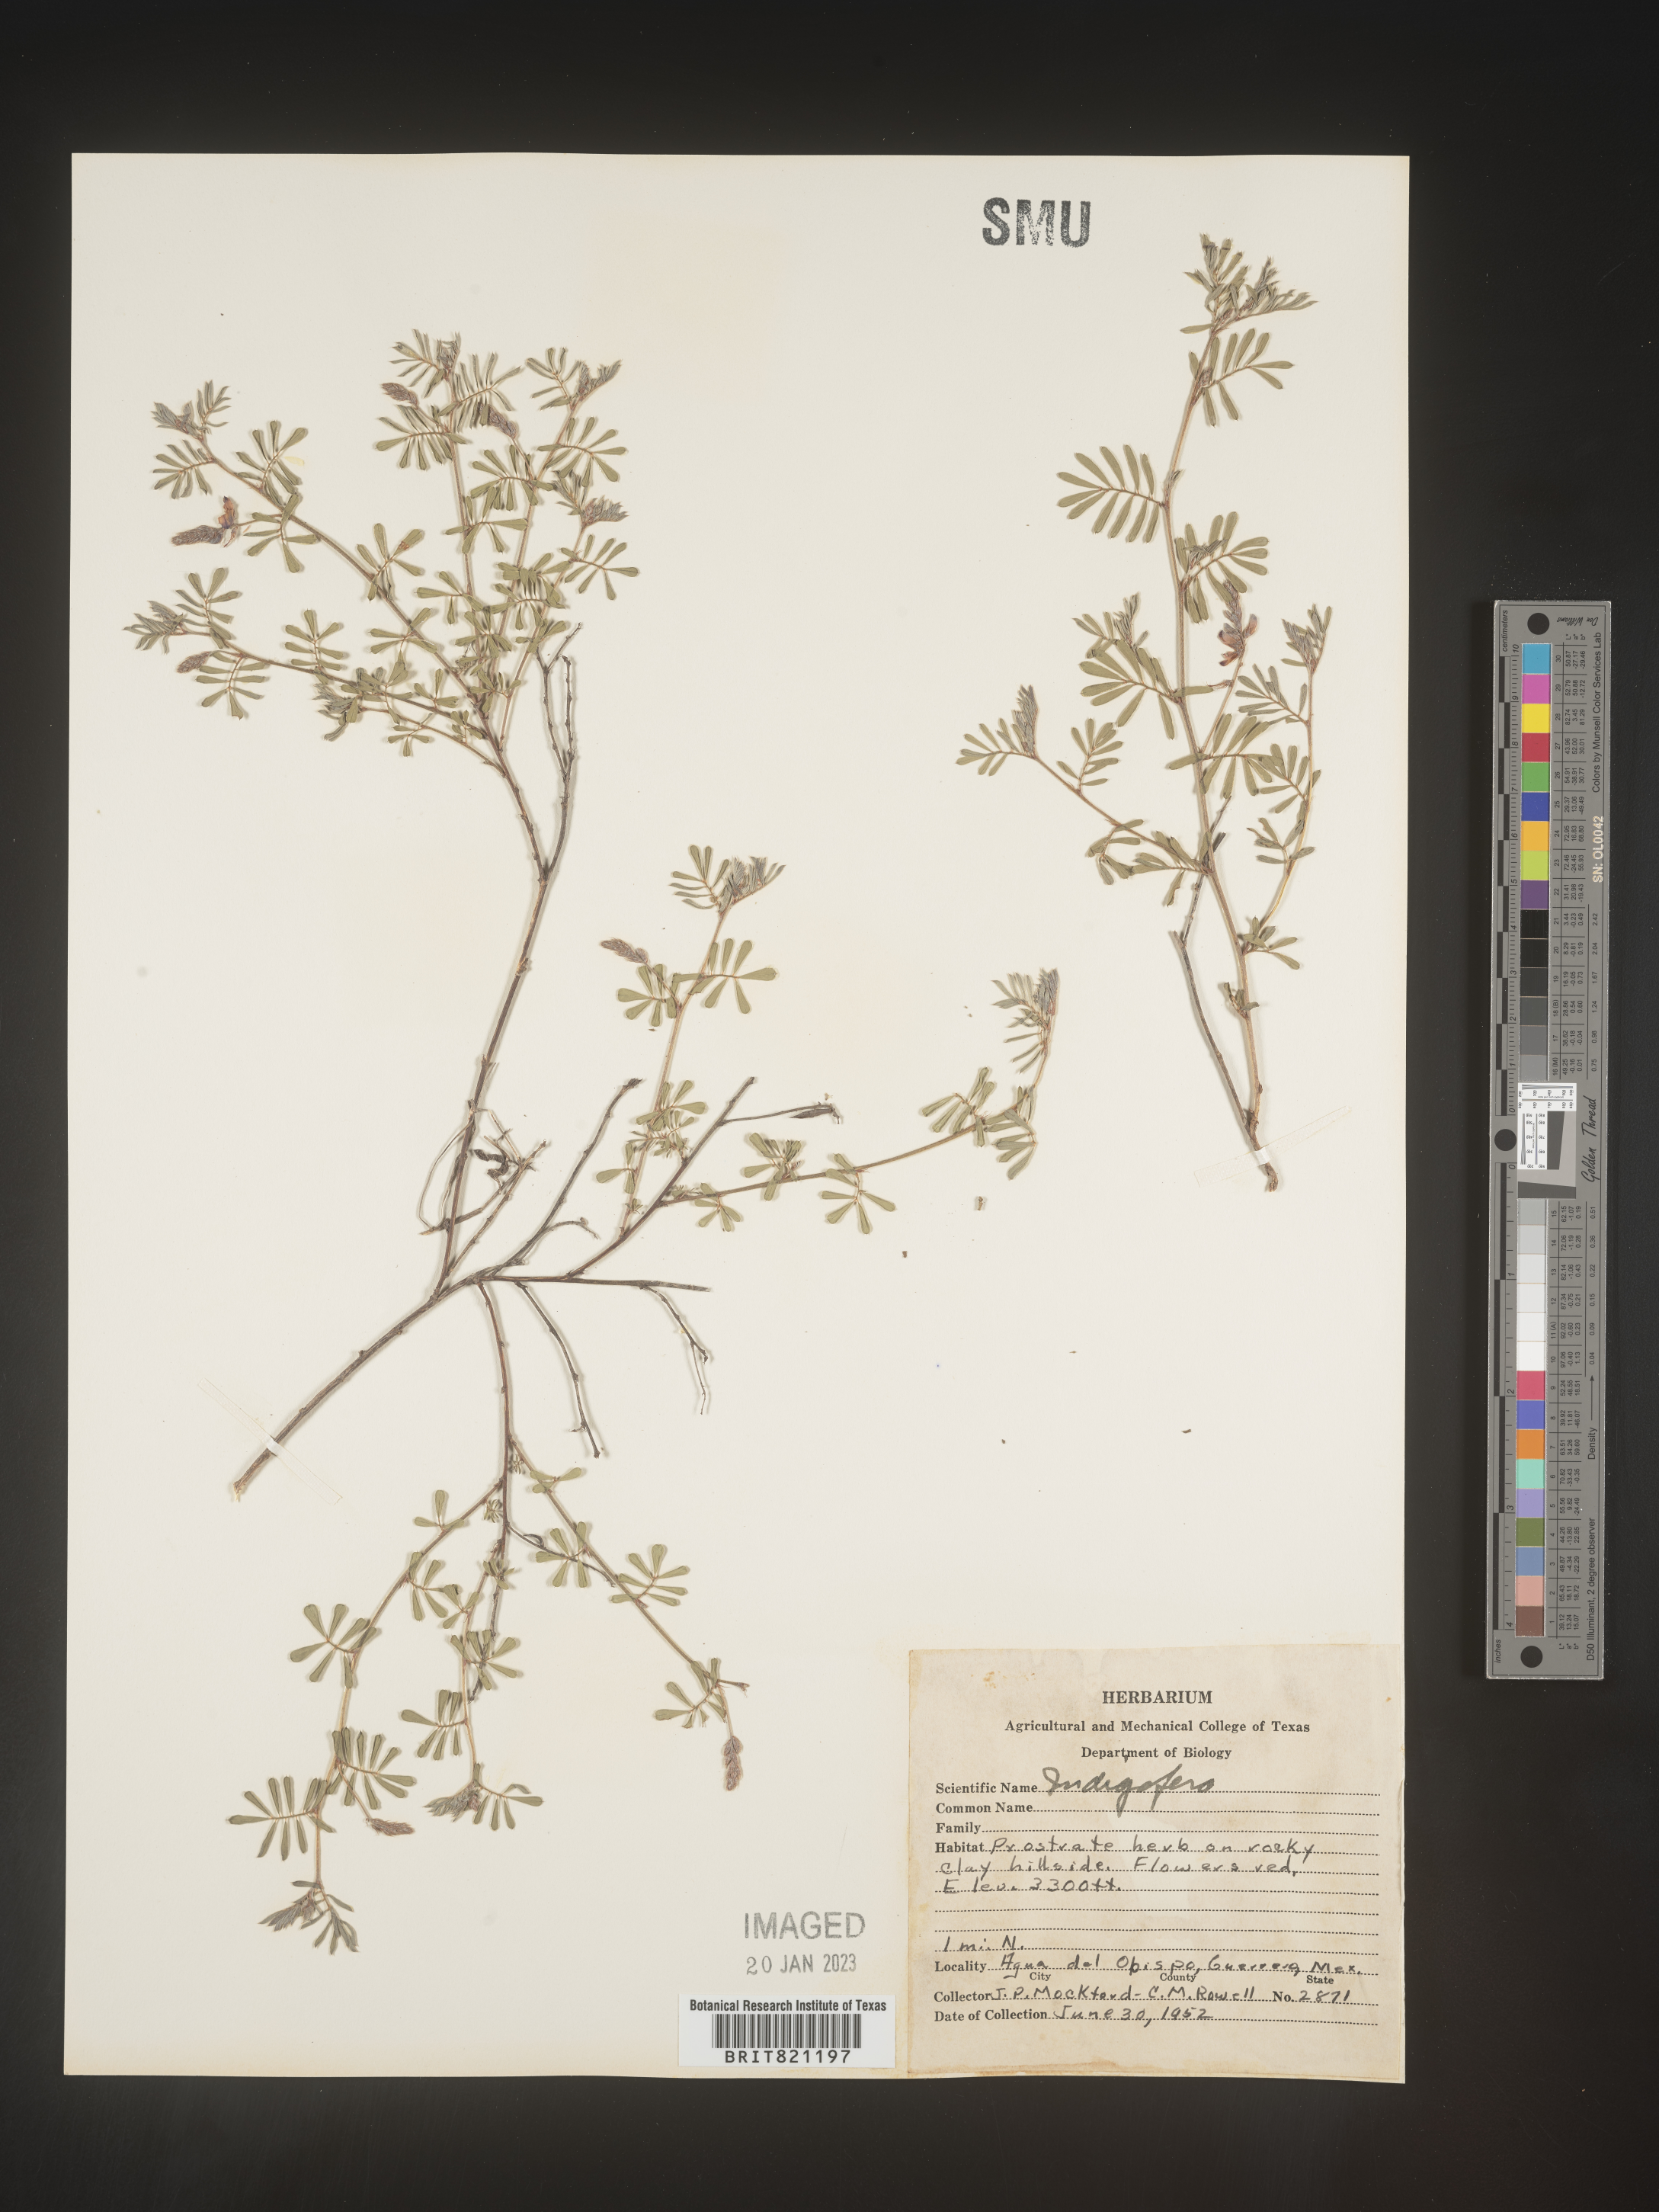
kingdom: Plantae
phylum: Tracheophyta
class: Magnoliopsida
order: Fabales
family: Fabaceae
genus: Indigofera
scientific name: Indigofera
